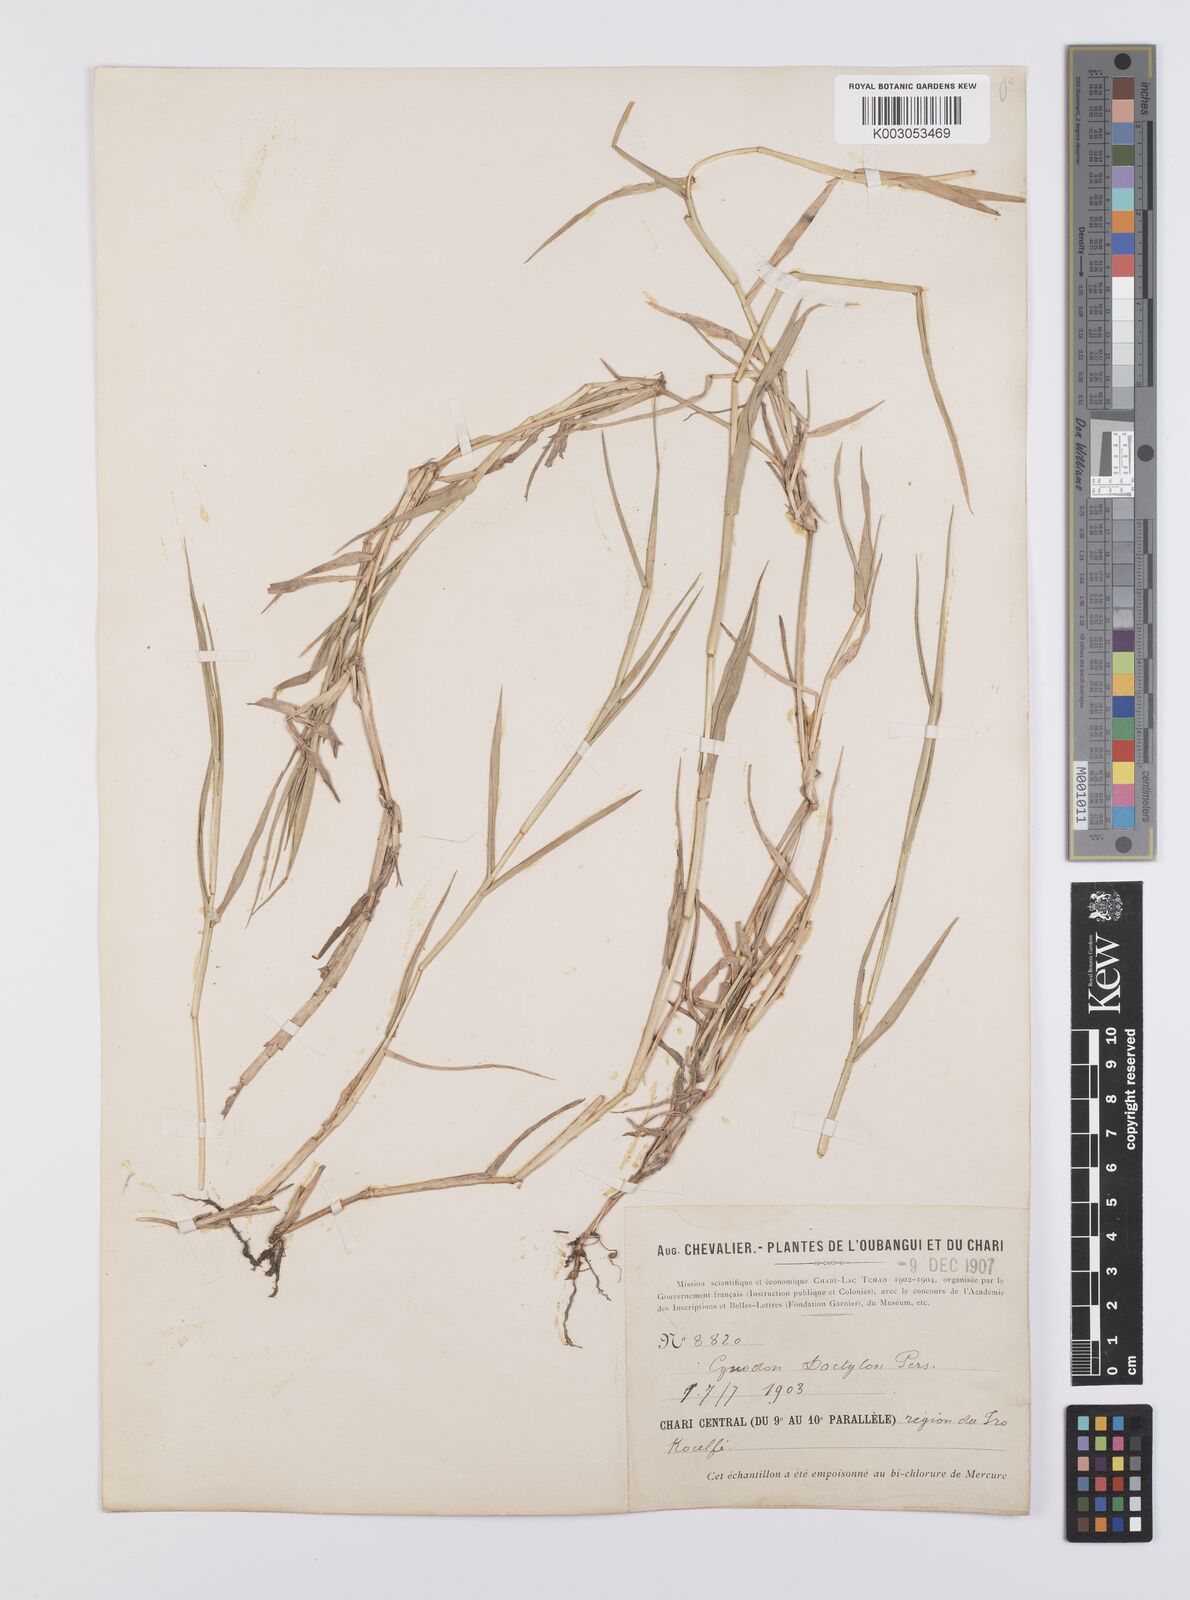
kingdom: Plantae
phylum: Tracheophyta
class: Liliopsida
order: Poales
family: Poaceae
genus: Cynodon
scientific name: Cynodon dactylon
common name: Bermuda grass
